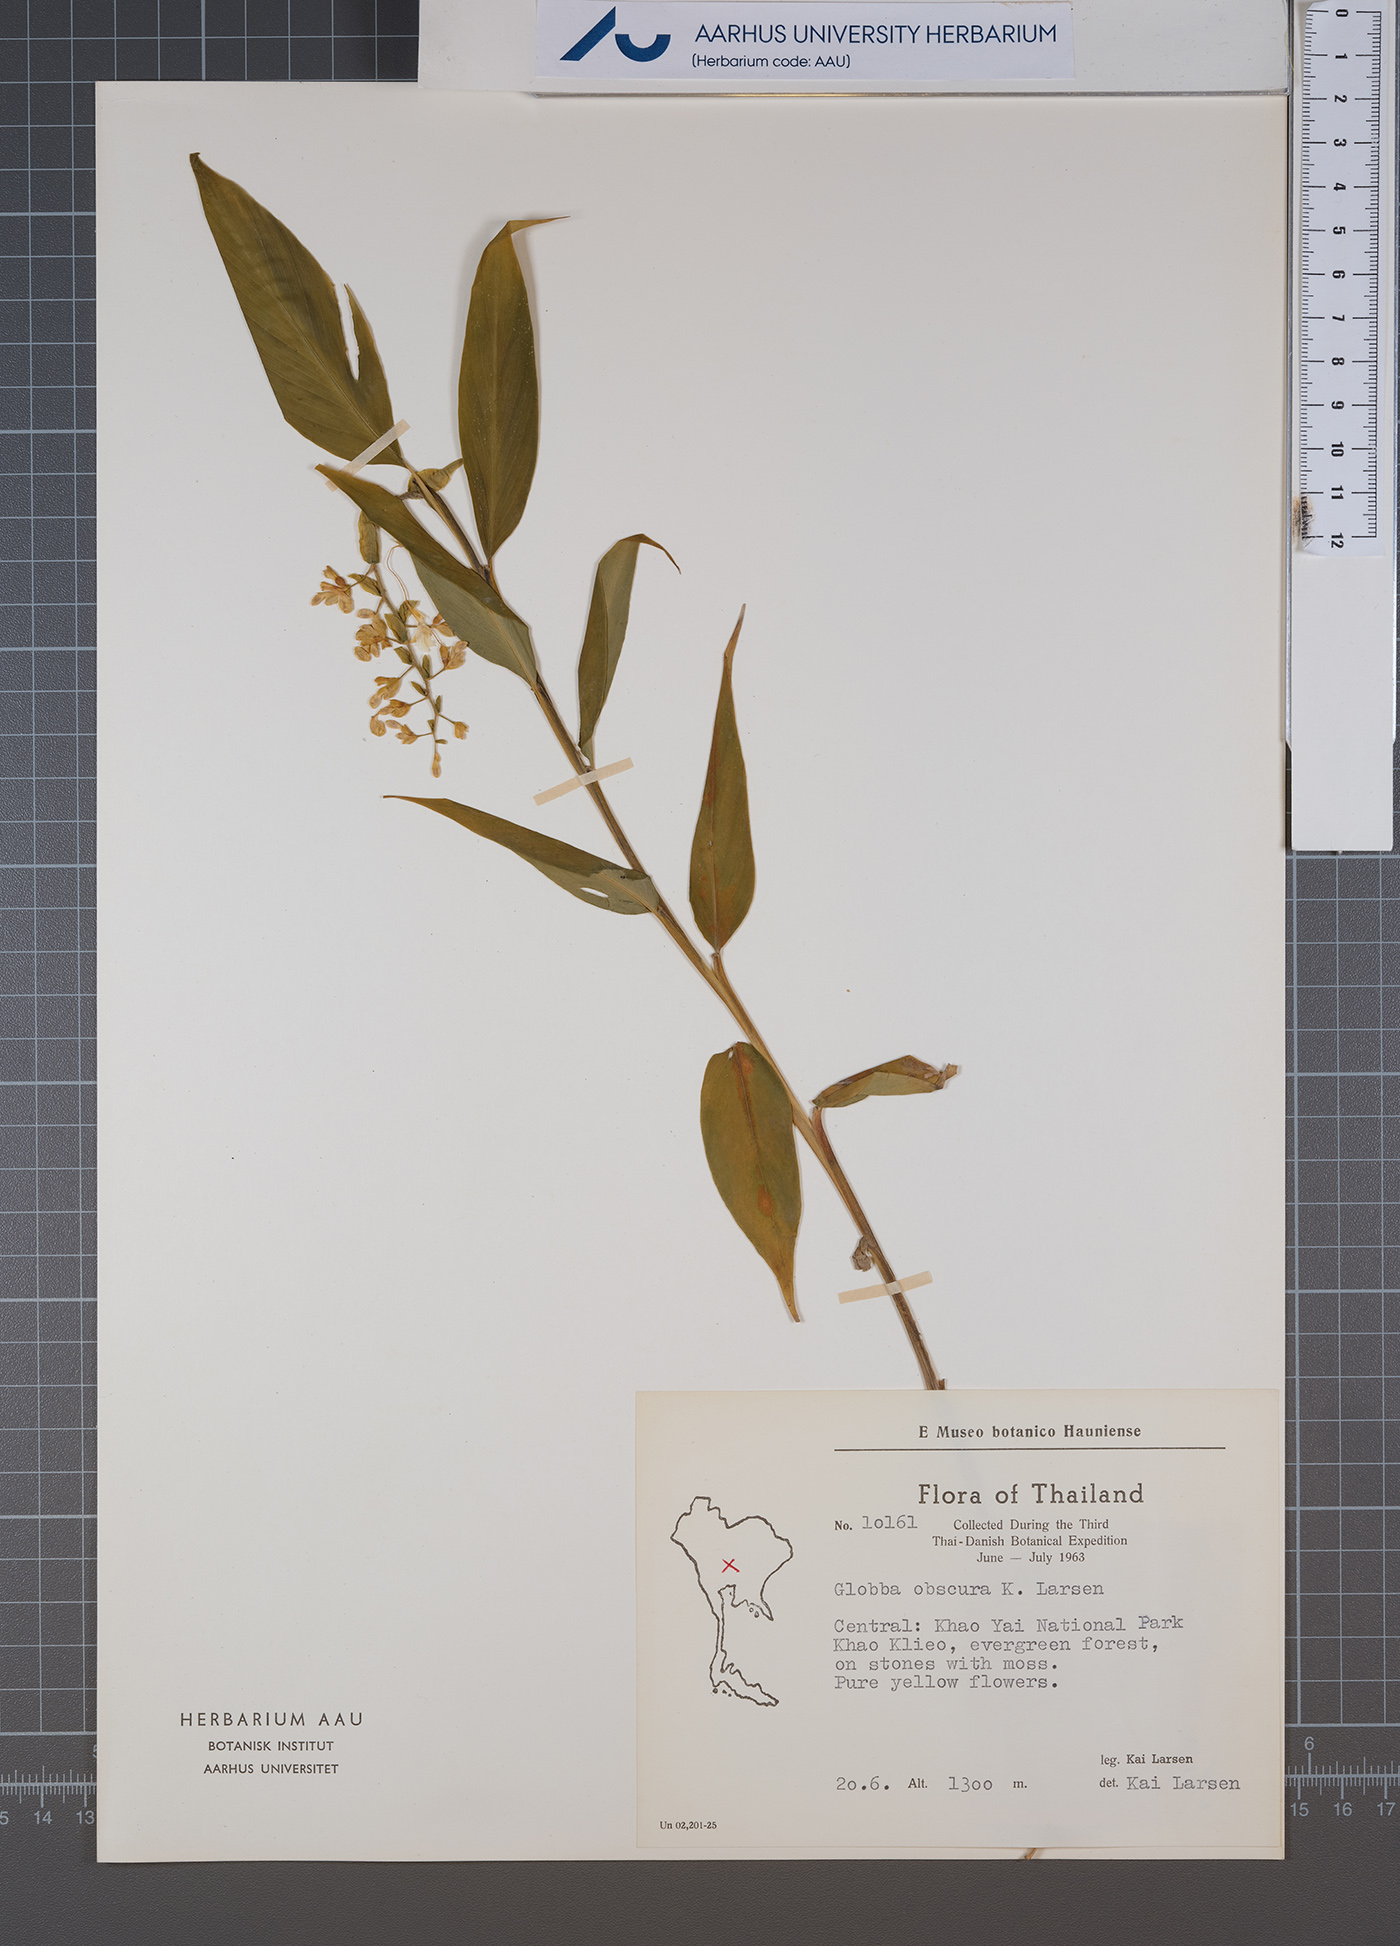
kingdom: Plantae
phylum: Tracheophyta
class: Liliopsida
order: Zingiberales
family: Zingiberaceae
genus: Globba
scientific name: Globba obscura
